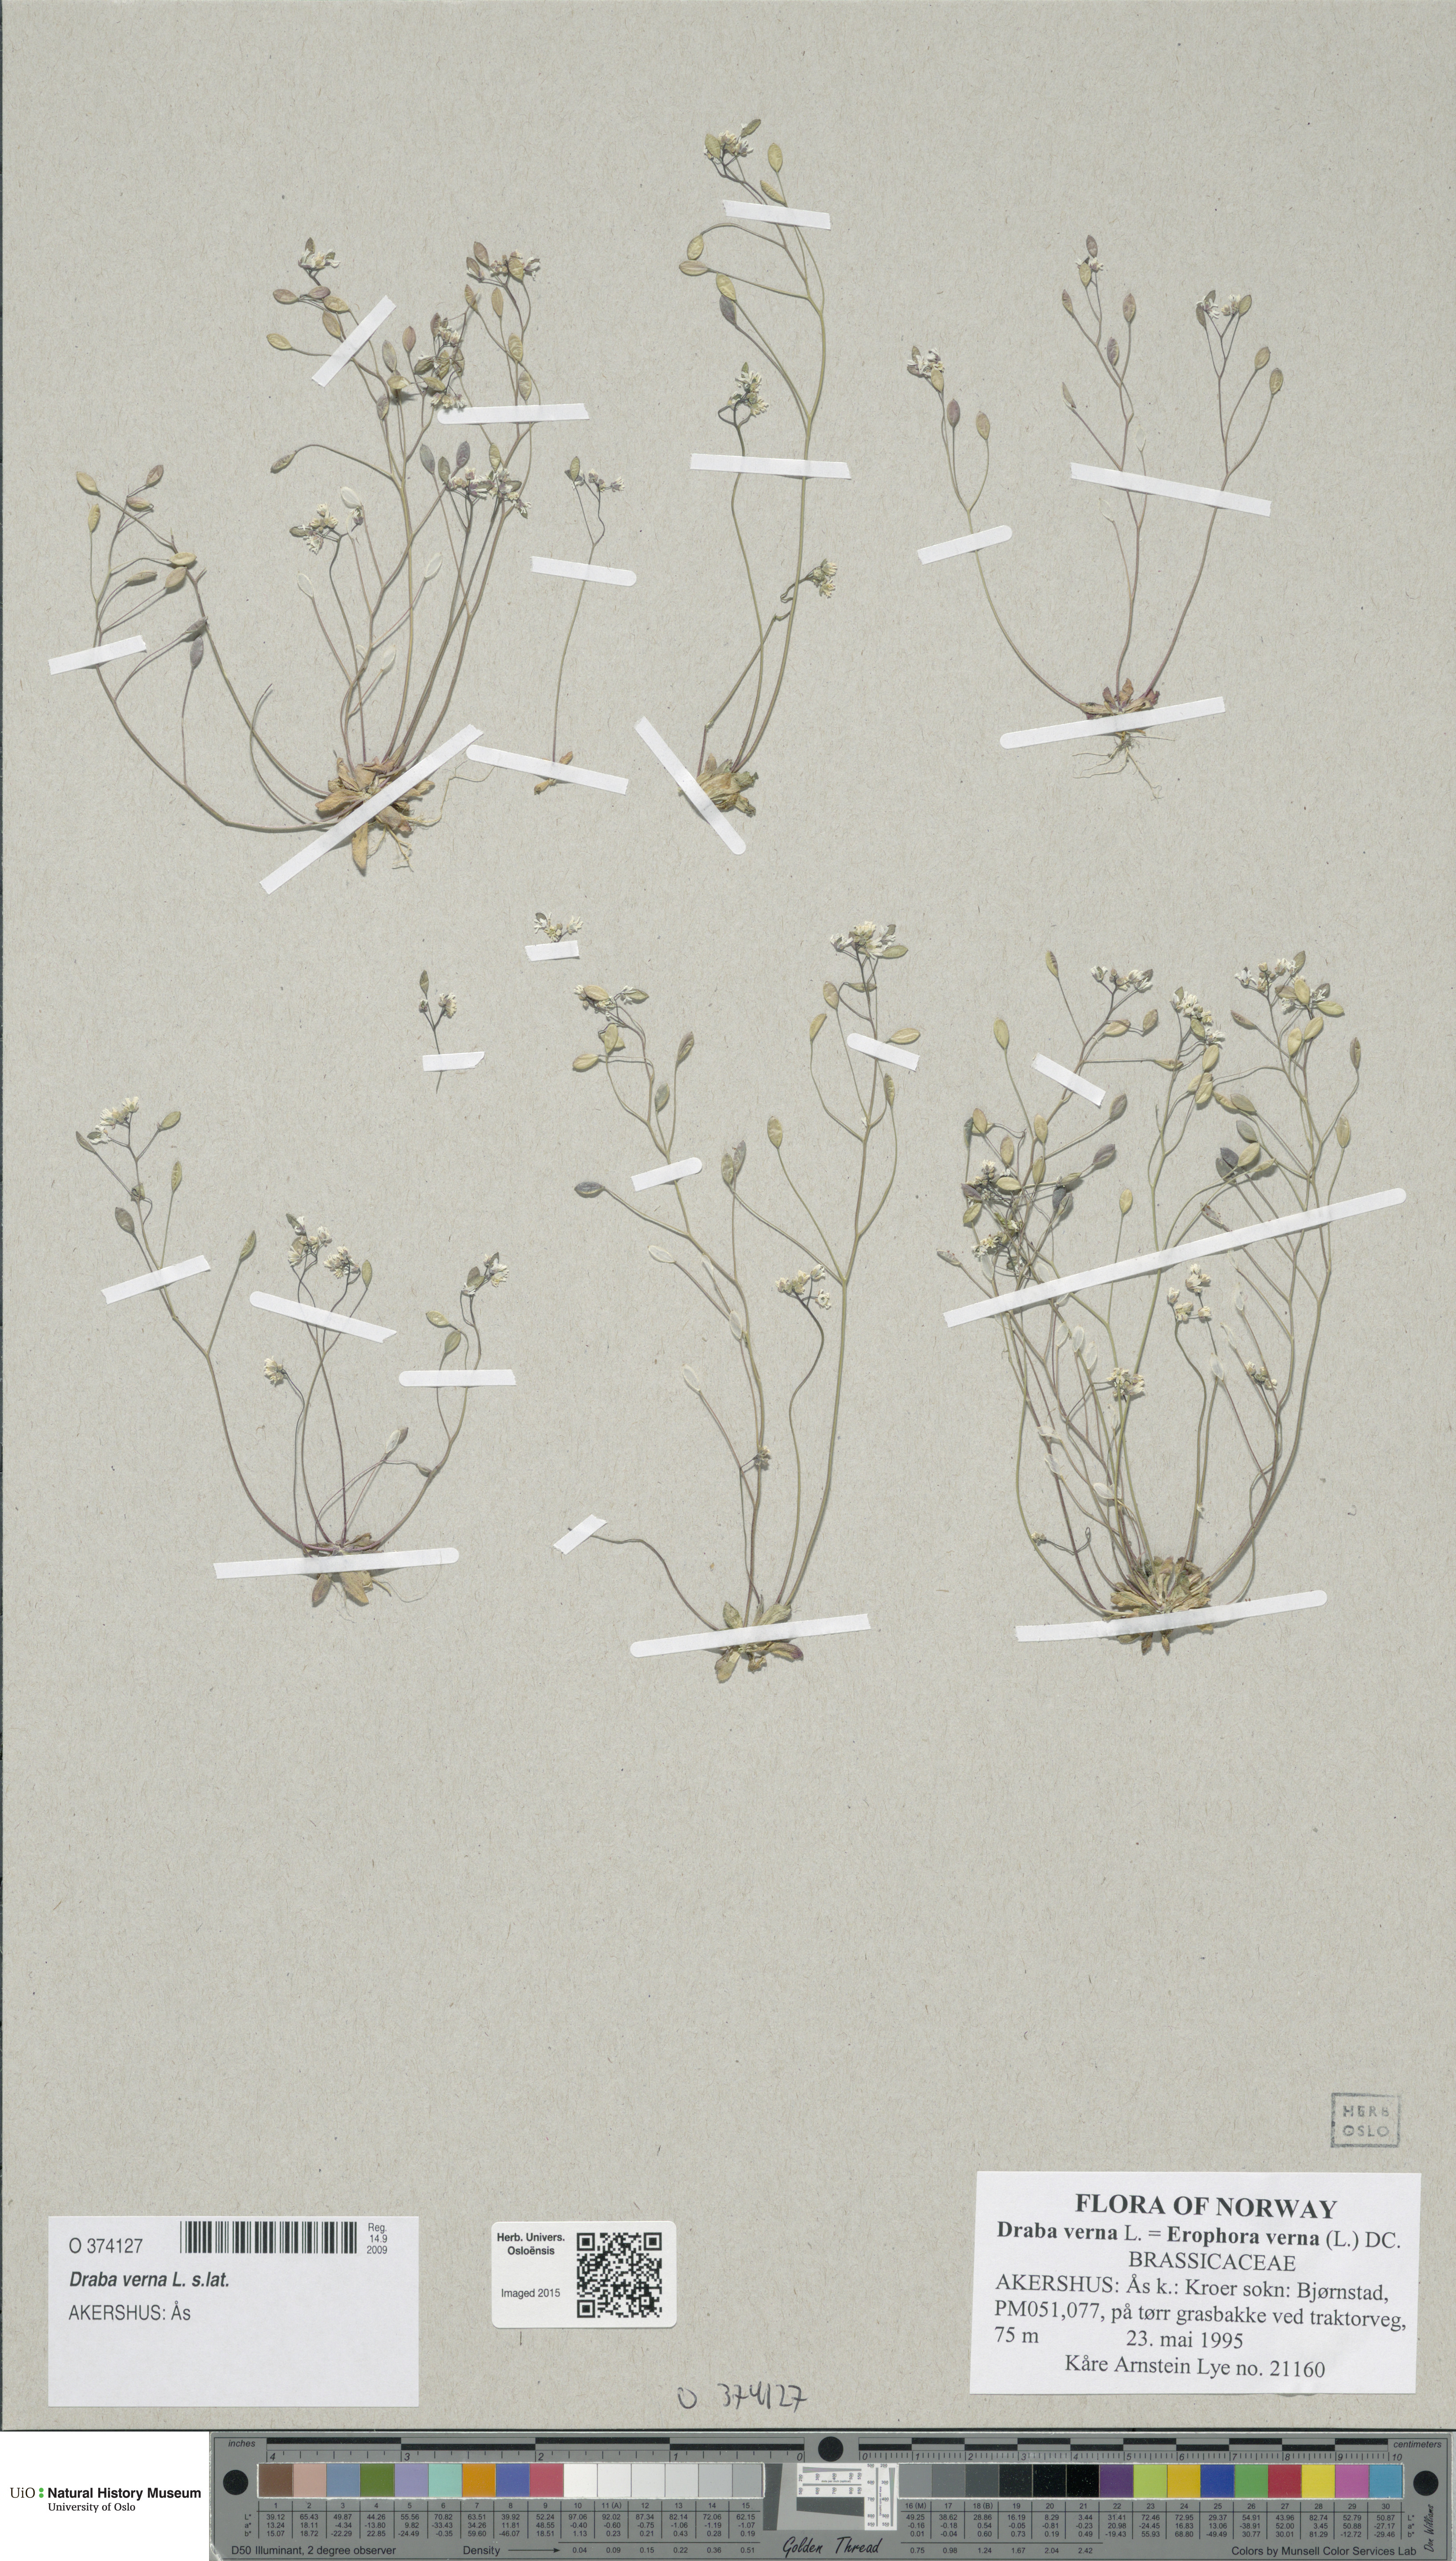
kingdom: Plantae
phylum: Tracheophyta
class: Magnoliopsida
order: Brassicales
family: Brassicaceae
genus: Draba
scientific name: Draba verna
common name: Spring draba
